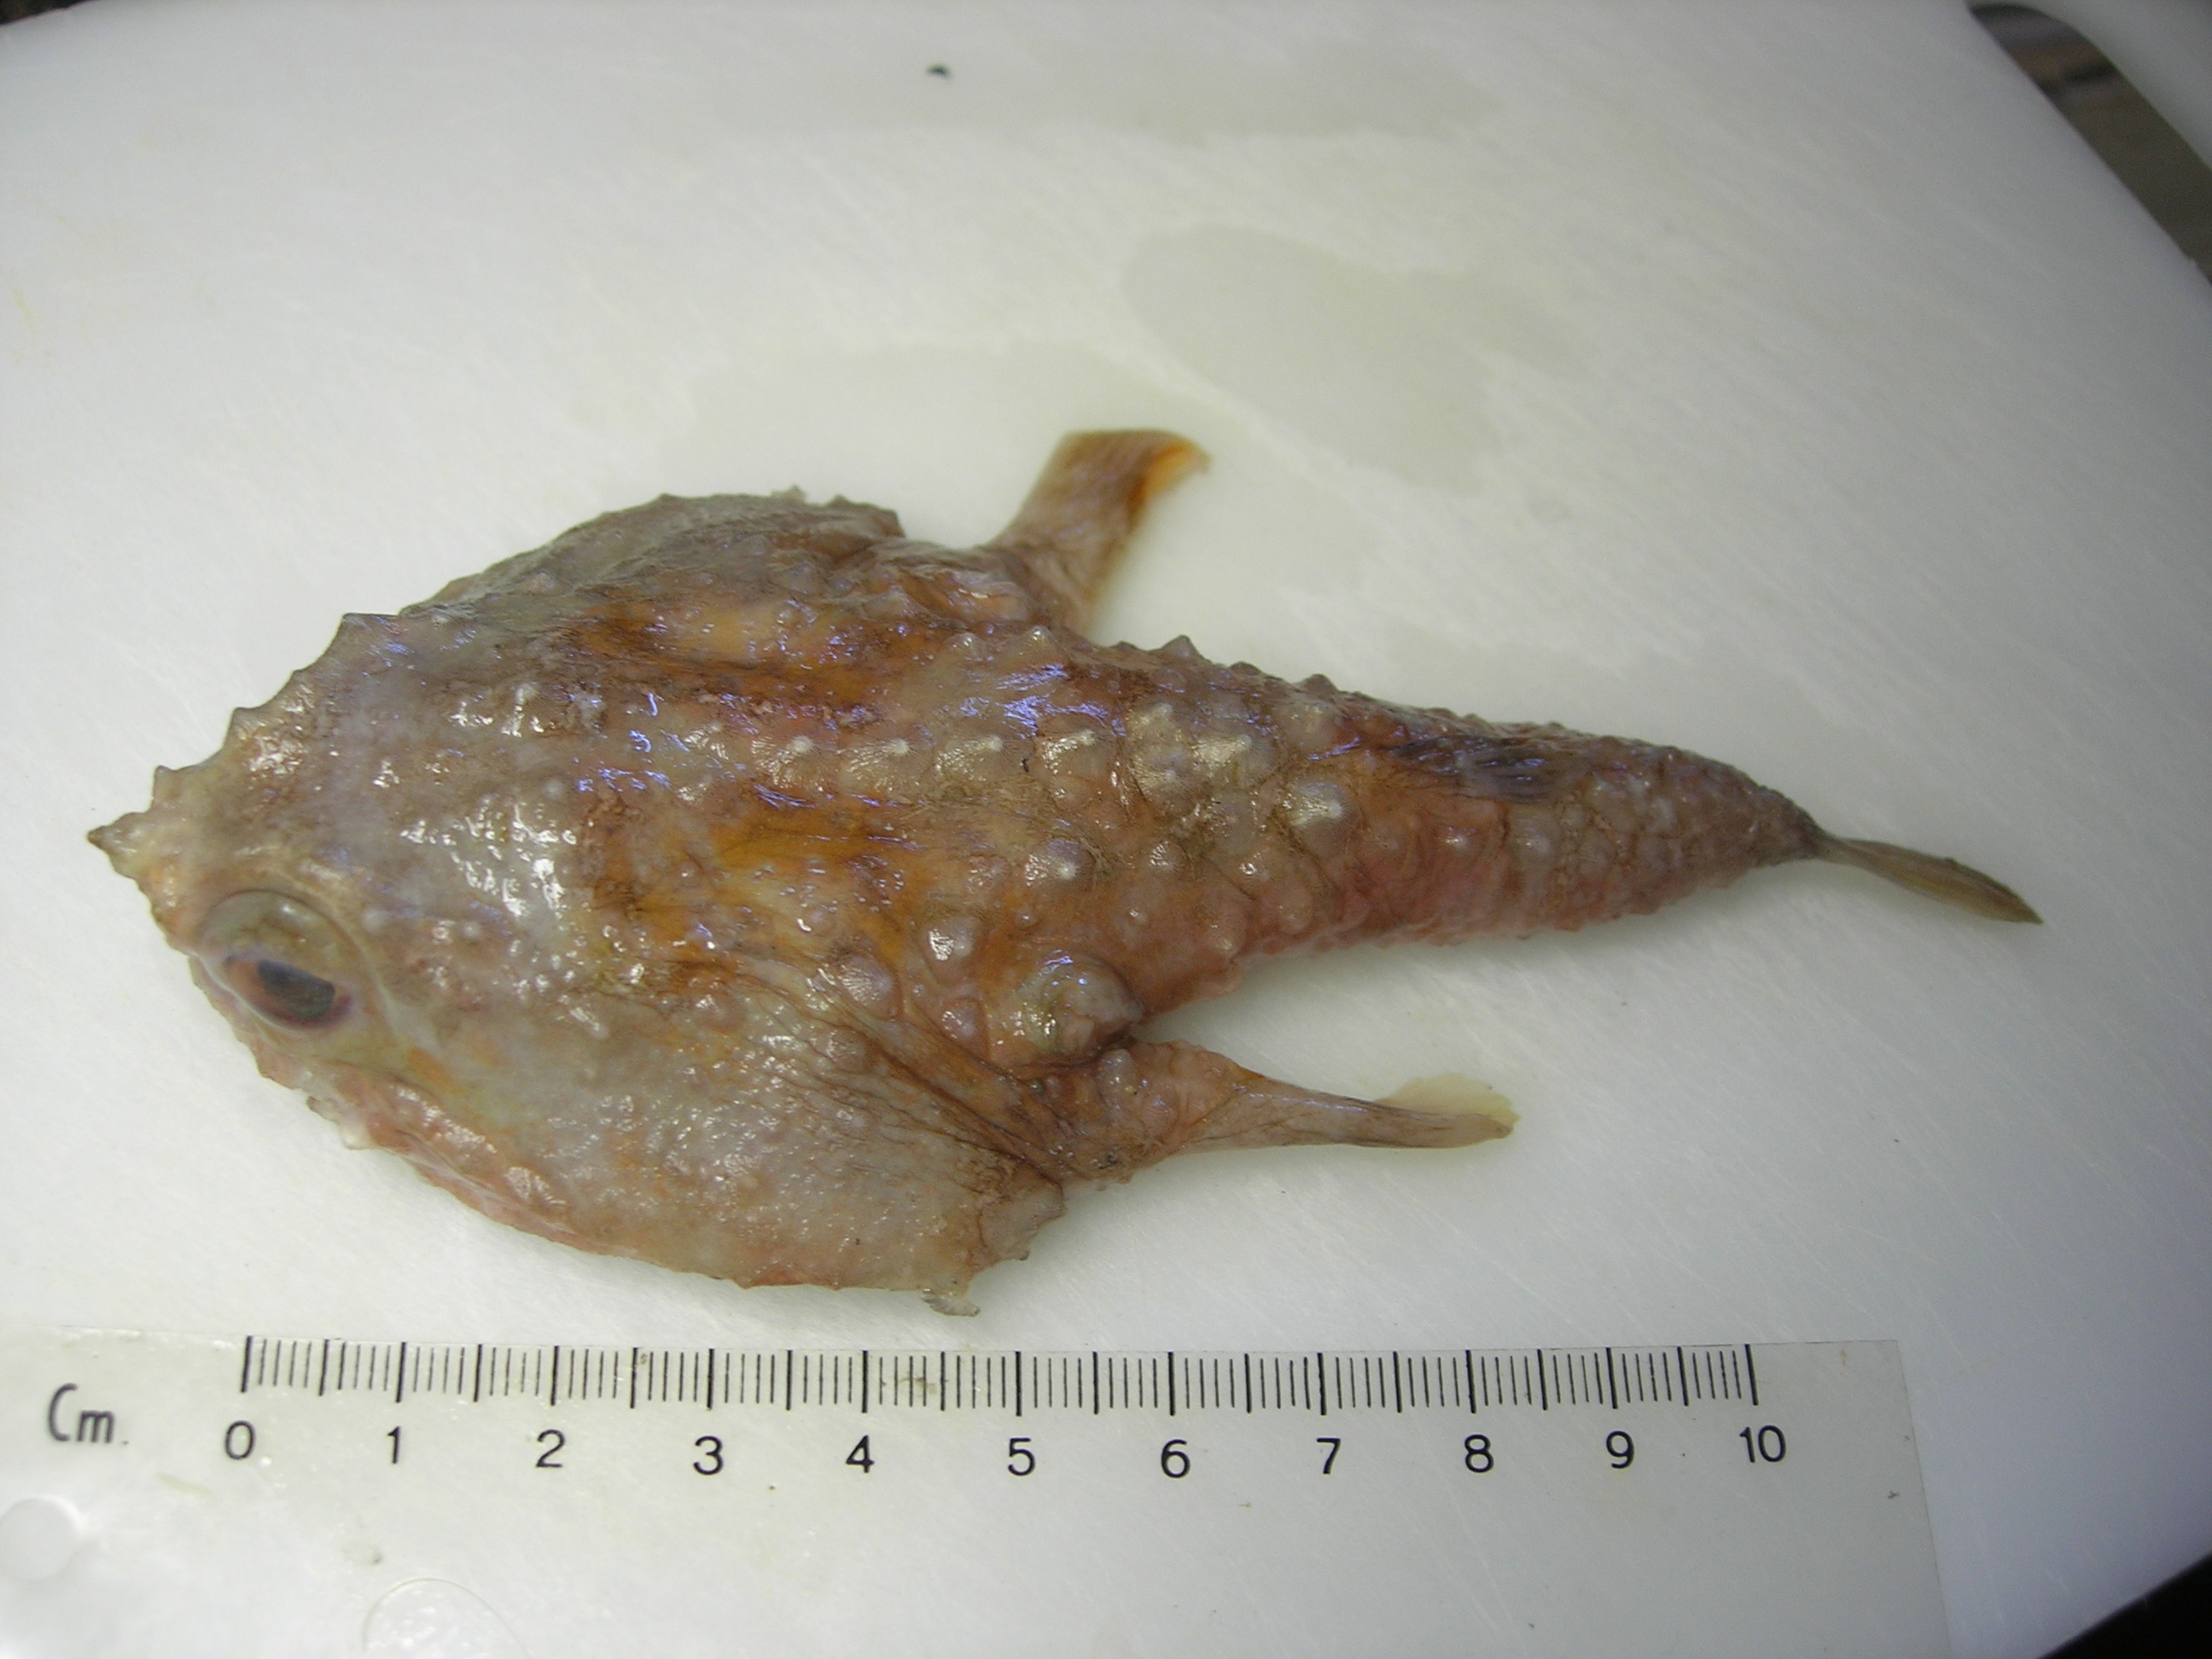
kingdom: Animalia
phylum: Chordata
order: Lophiiformes
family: Ogcocephalidae
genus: Malthopsis
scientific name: Malthopsis gigas
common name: Giant triangular batfish
